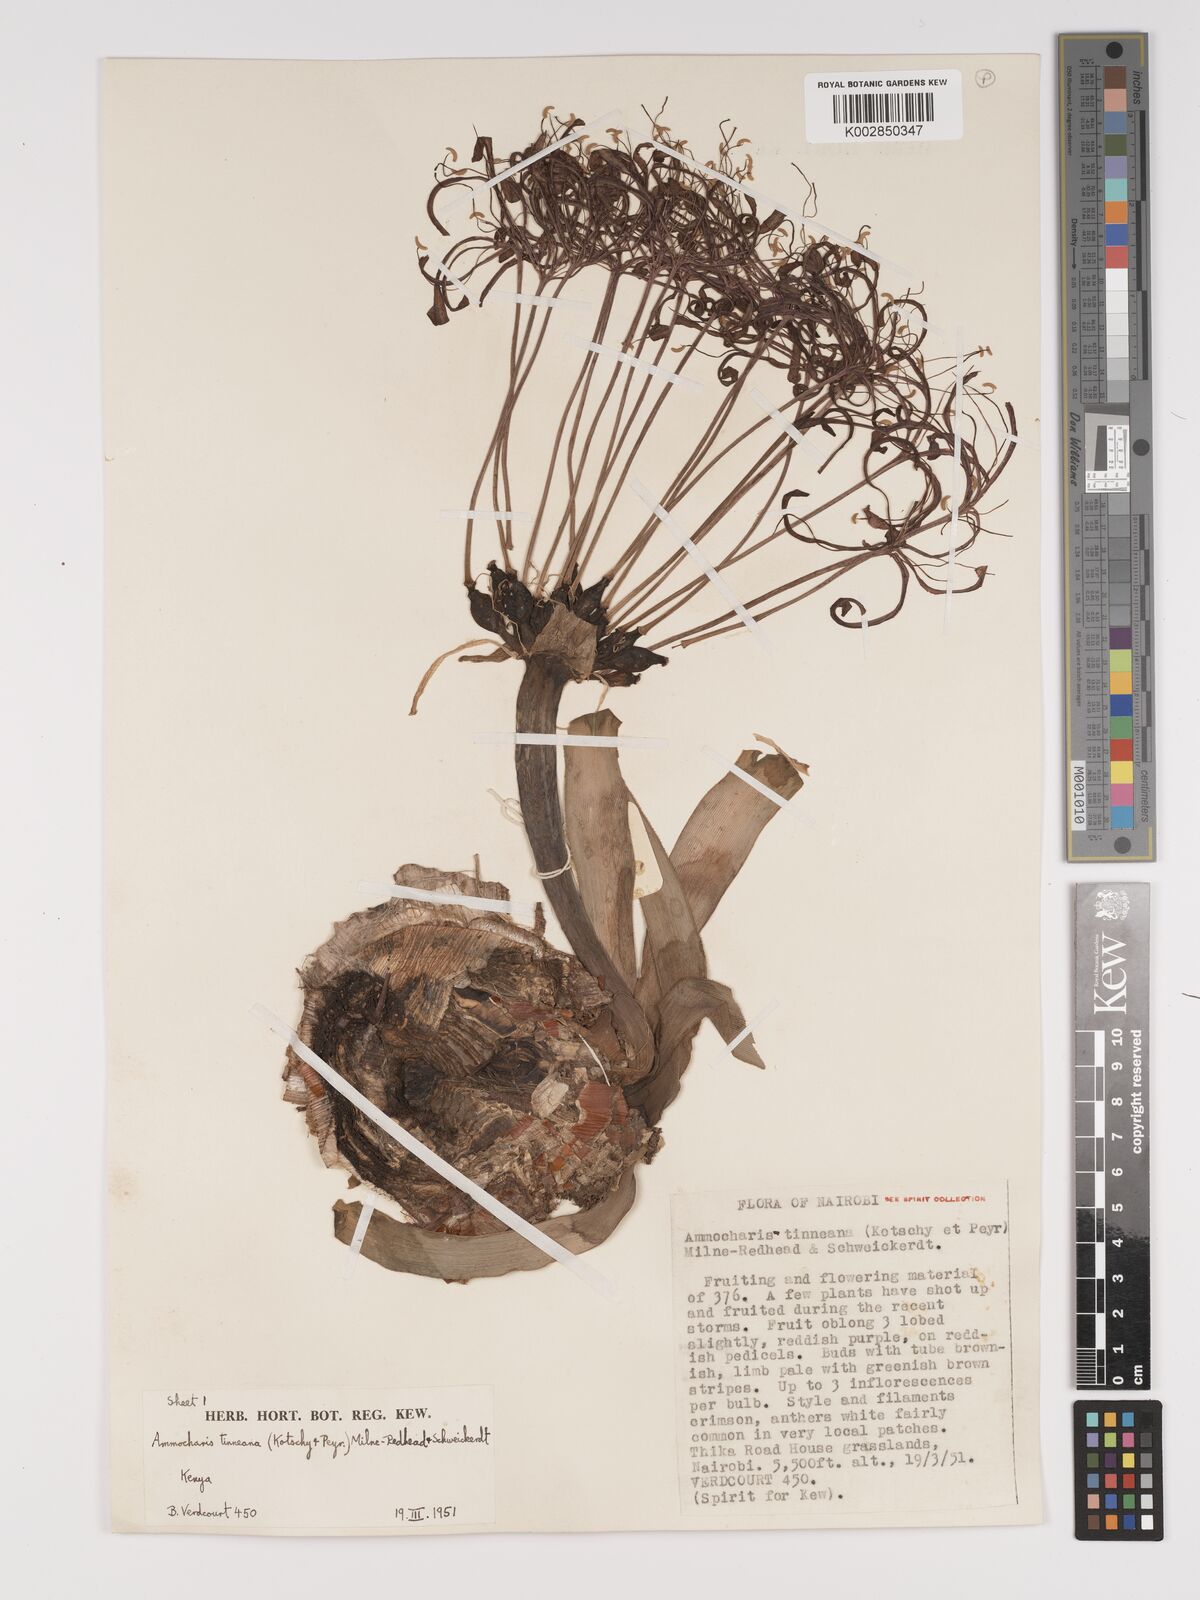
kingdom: Plantae
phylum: Tracheophyta
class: Liliopsida
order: Asparagales
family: Amaryllidaceae
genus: Ammocharis
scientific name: Ammocharis tinneana
